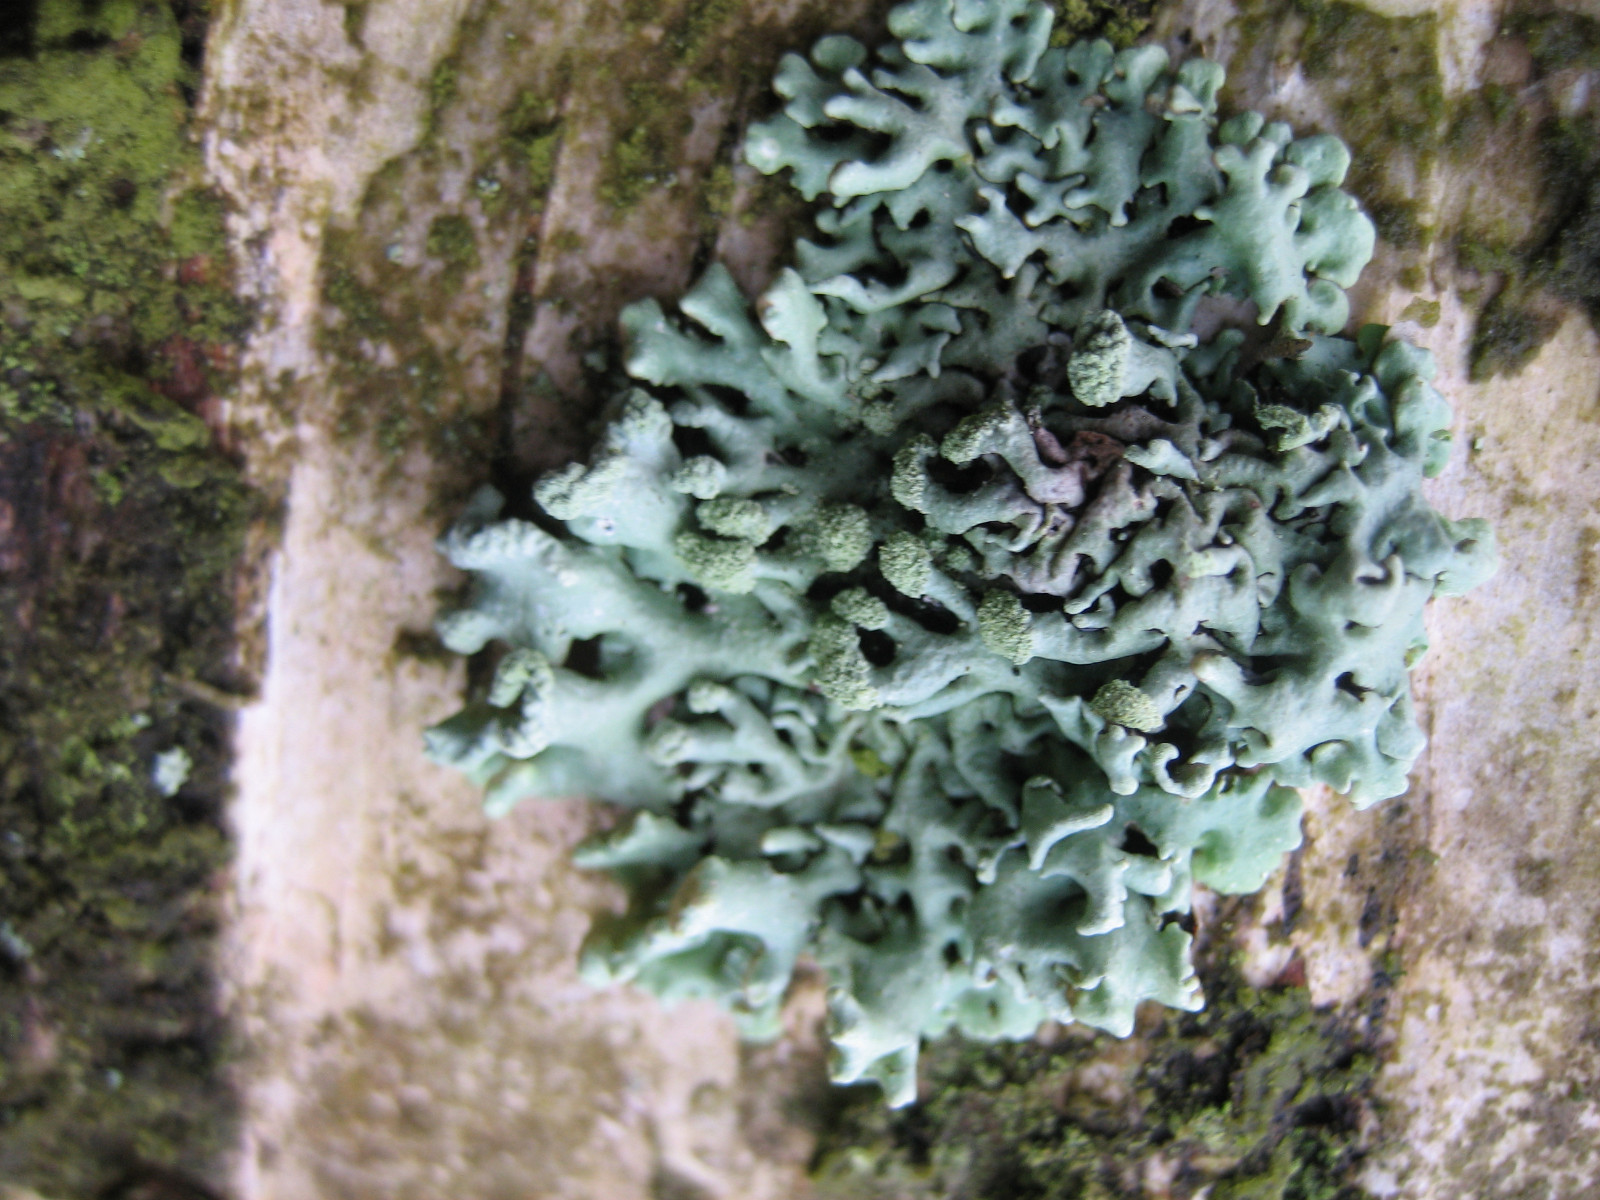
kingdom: Fungi
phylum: Ascomycota
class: Lecanoromycetes
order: Lecanorales
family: Parmeliaceae
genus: Hypogymnia
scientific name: Hypogymnia tubulosa
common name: finger-kvistlav
